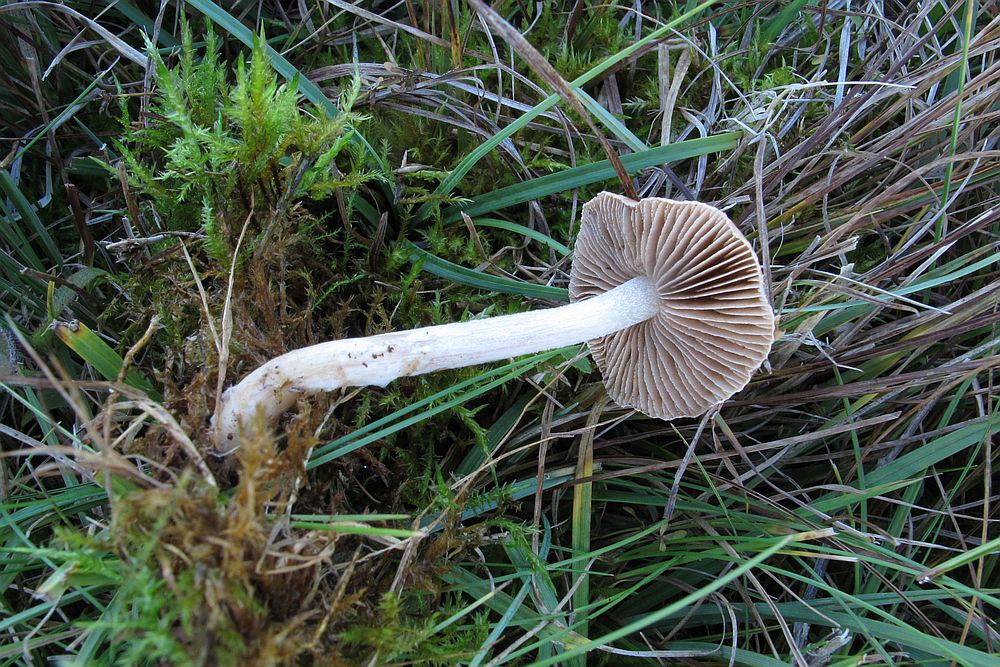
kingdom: Fungi
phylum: Basidiomycota
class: Agaricomycetes
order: Agaricales
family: Hymenogastraceae
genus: Hebeloma
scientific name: Hebeloma leucosarx
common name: højstokket tåreblad
